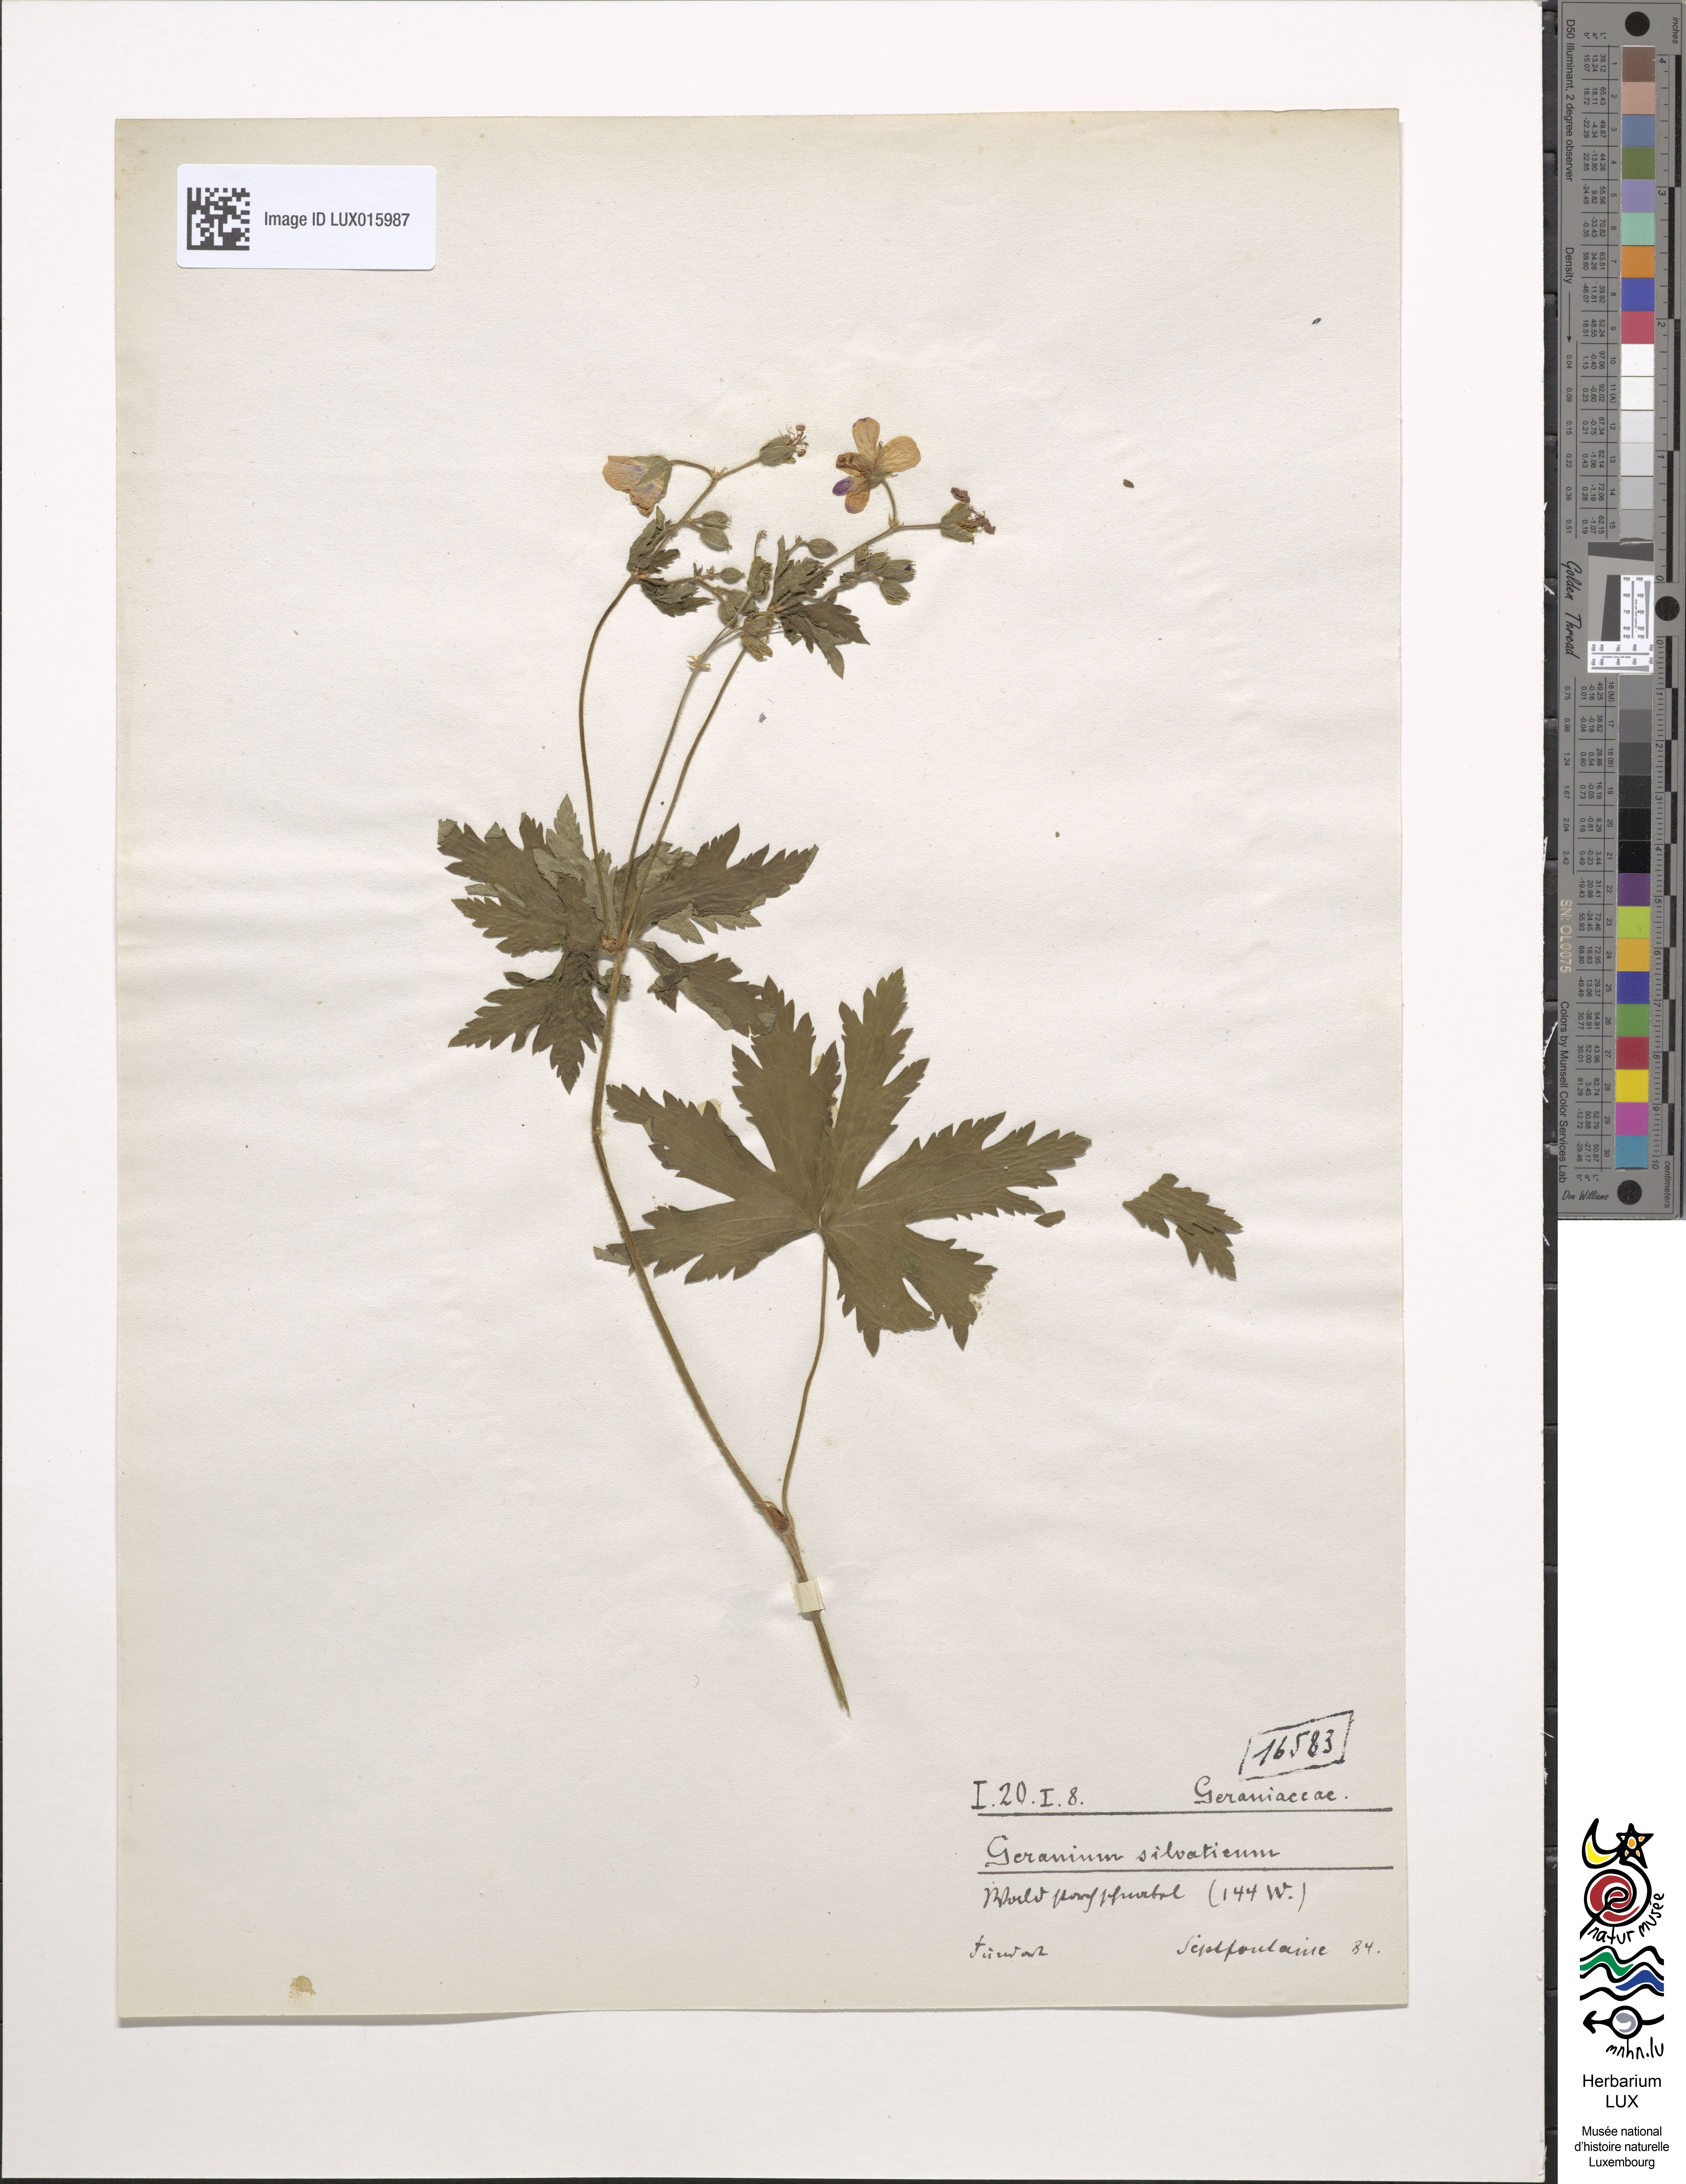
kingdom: Plantae
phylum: Tracheophyta
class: Magnoliopsida
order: Geraniales
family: Geraniaceae
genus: Geranium
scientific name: Geranium sylvaticum
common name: Wood crane's-bill
